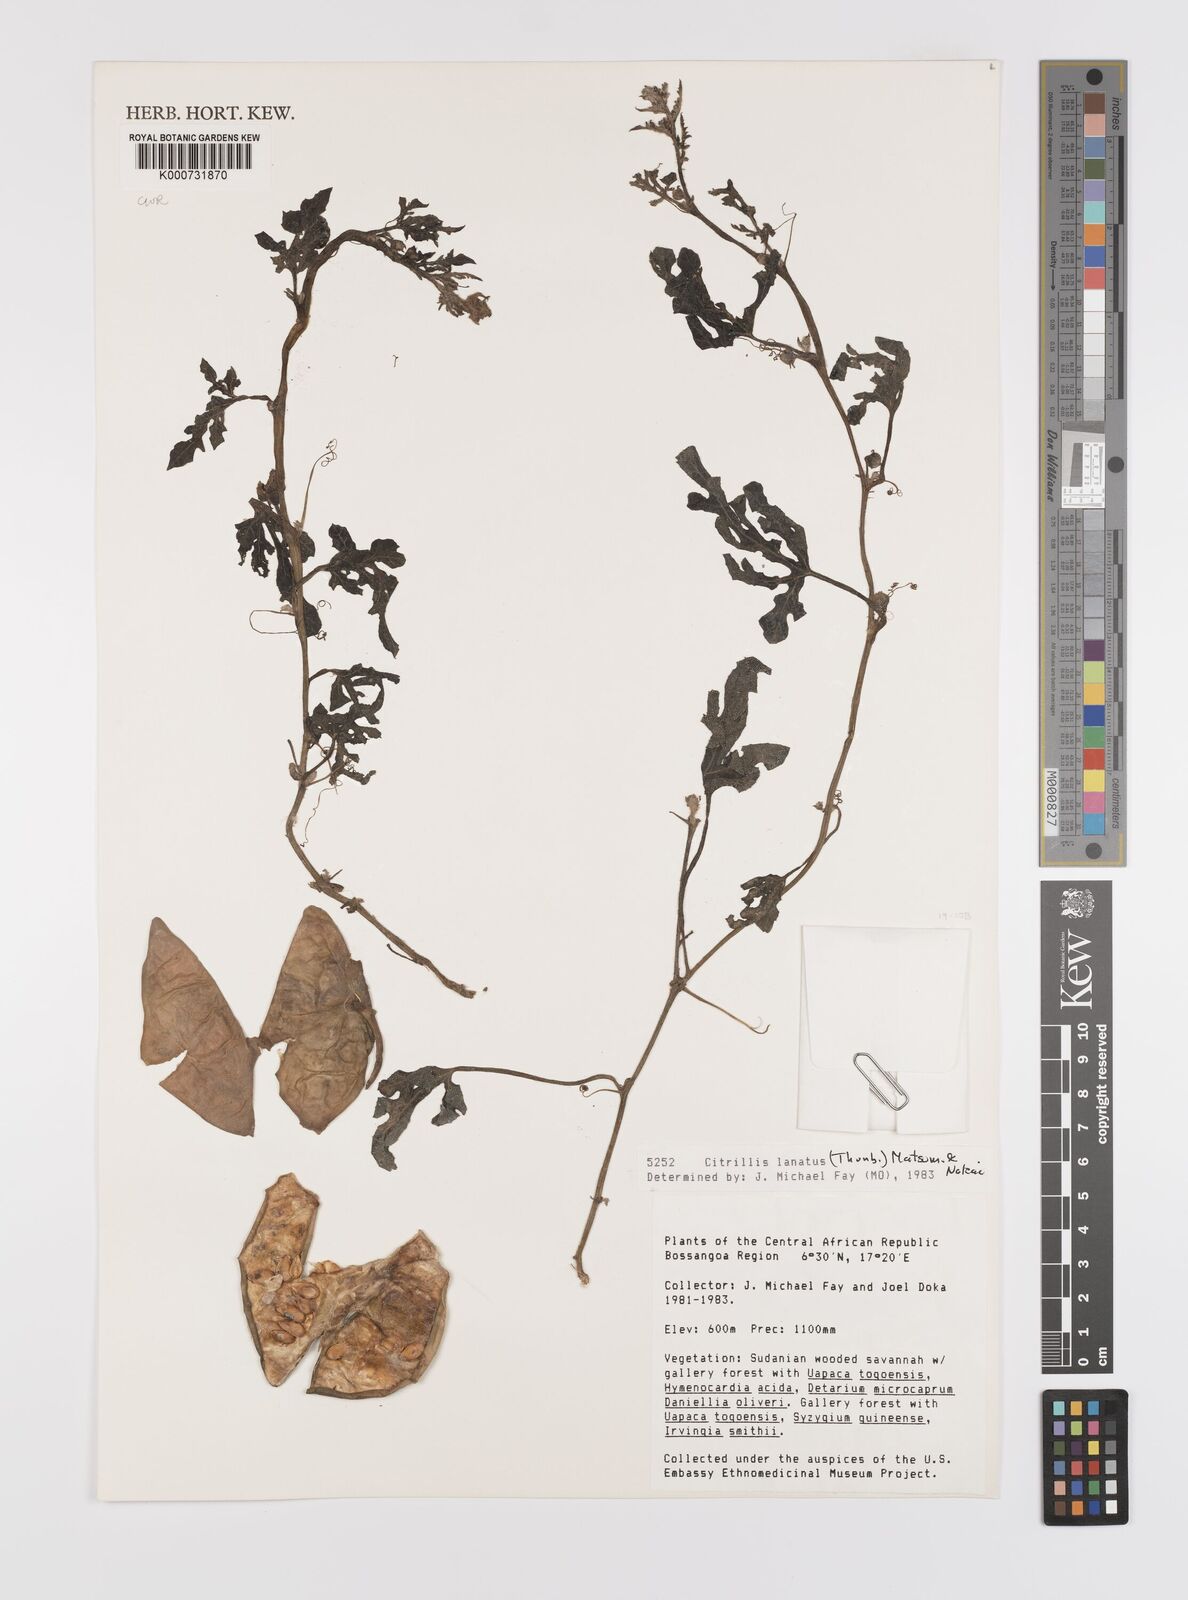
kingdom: Plantae
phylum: Tracheophyta
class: Magnoliopsida
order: Cucurbitales
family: Cucurbitaceae
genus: Citrullus
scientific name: Citrullus lanatus
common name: Watermelon
